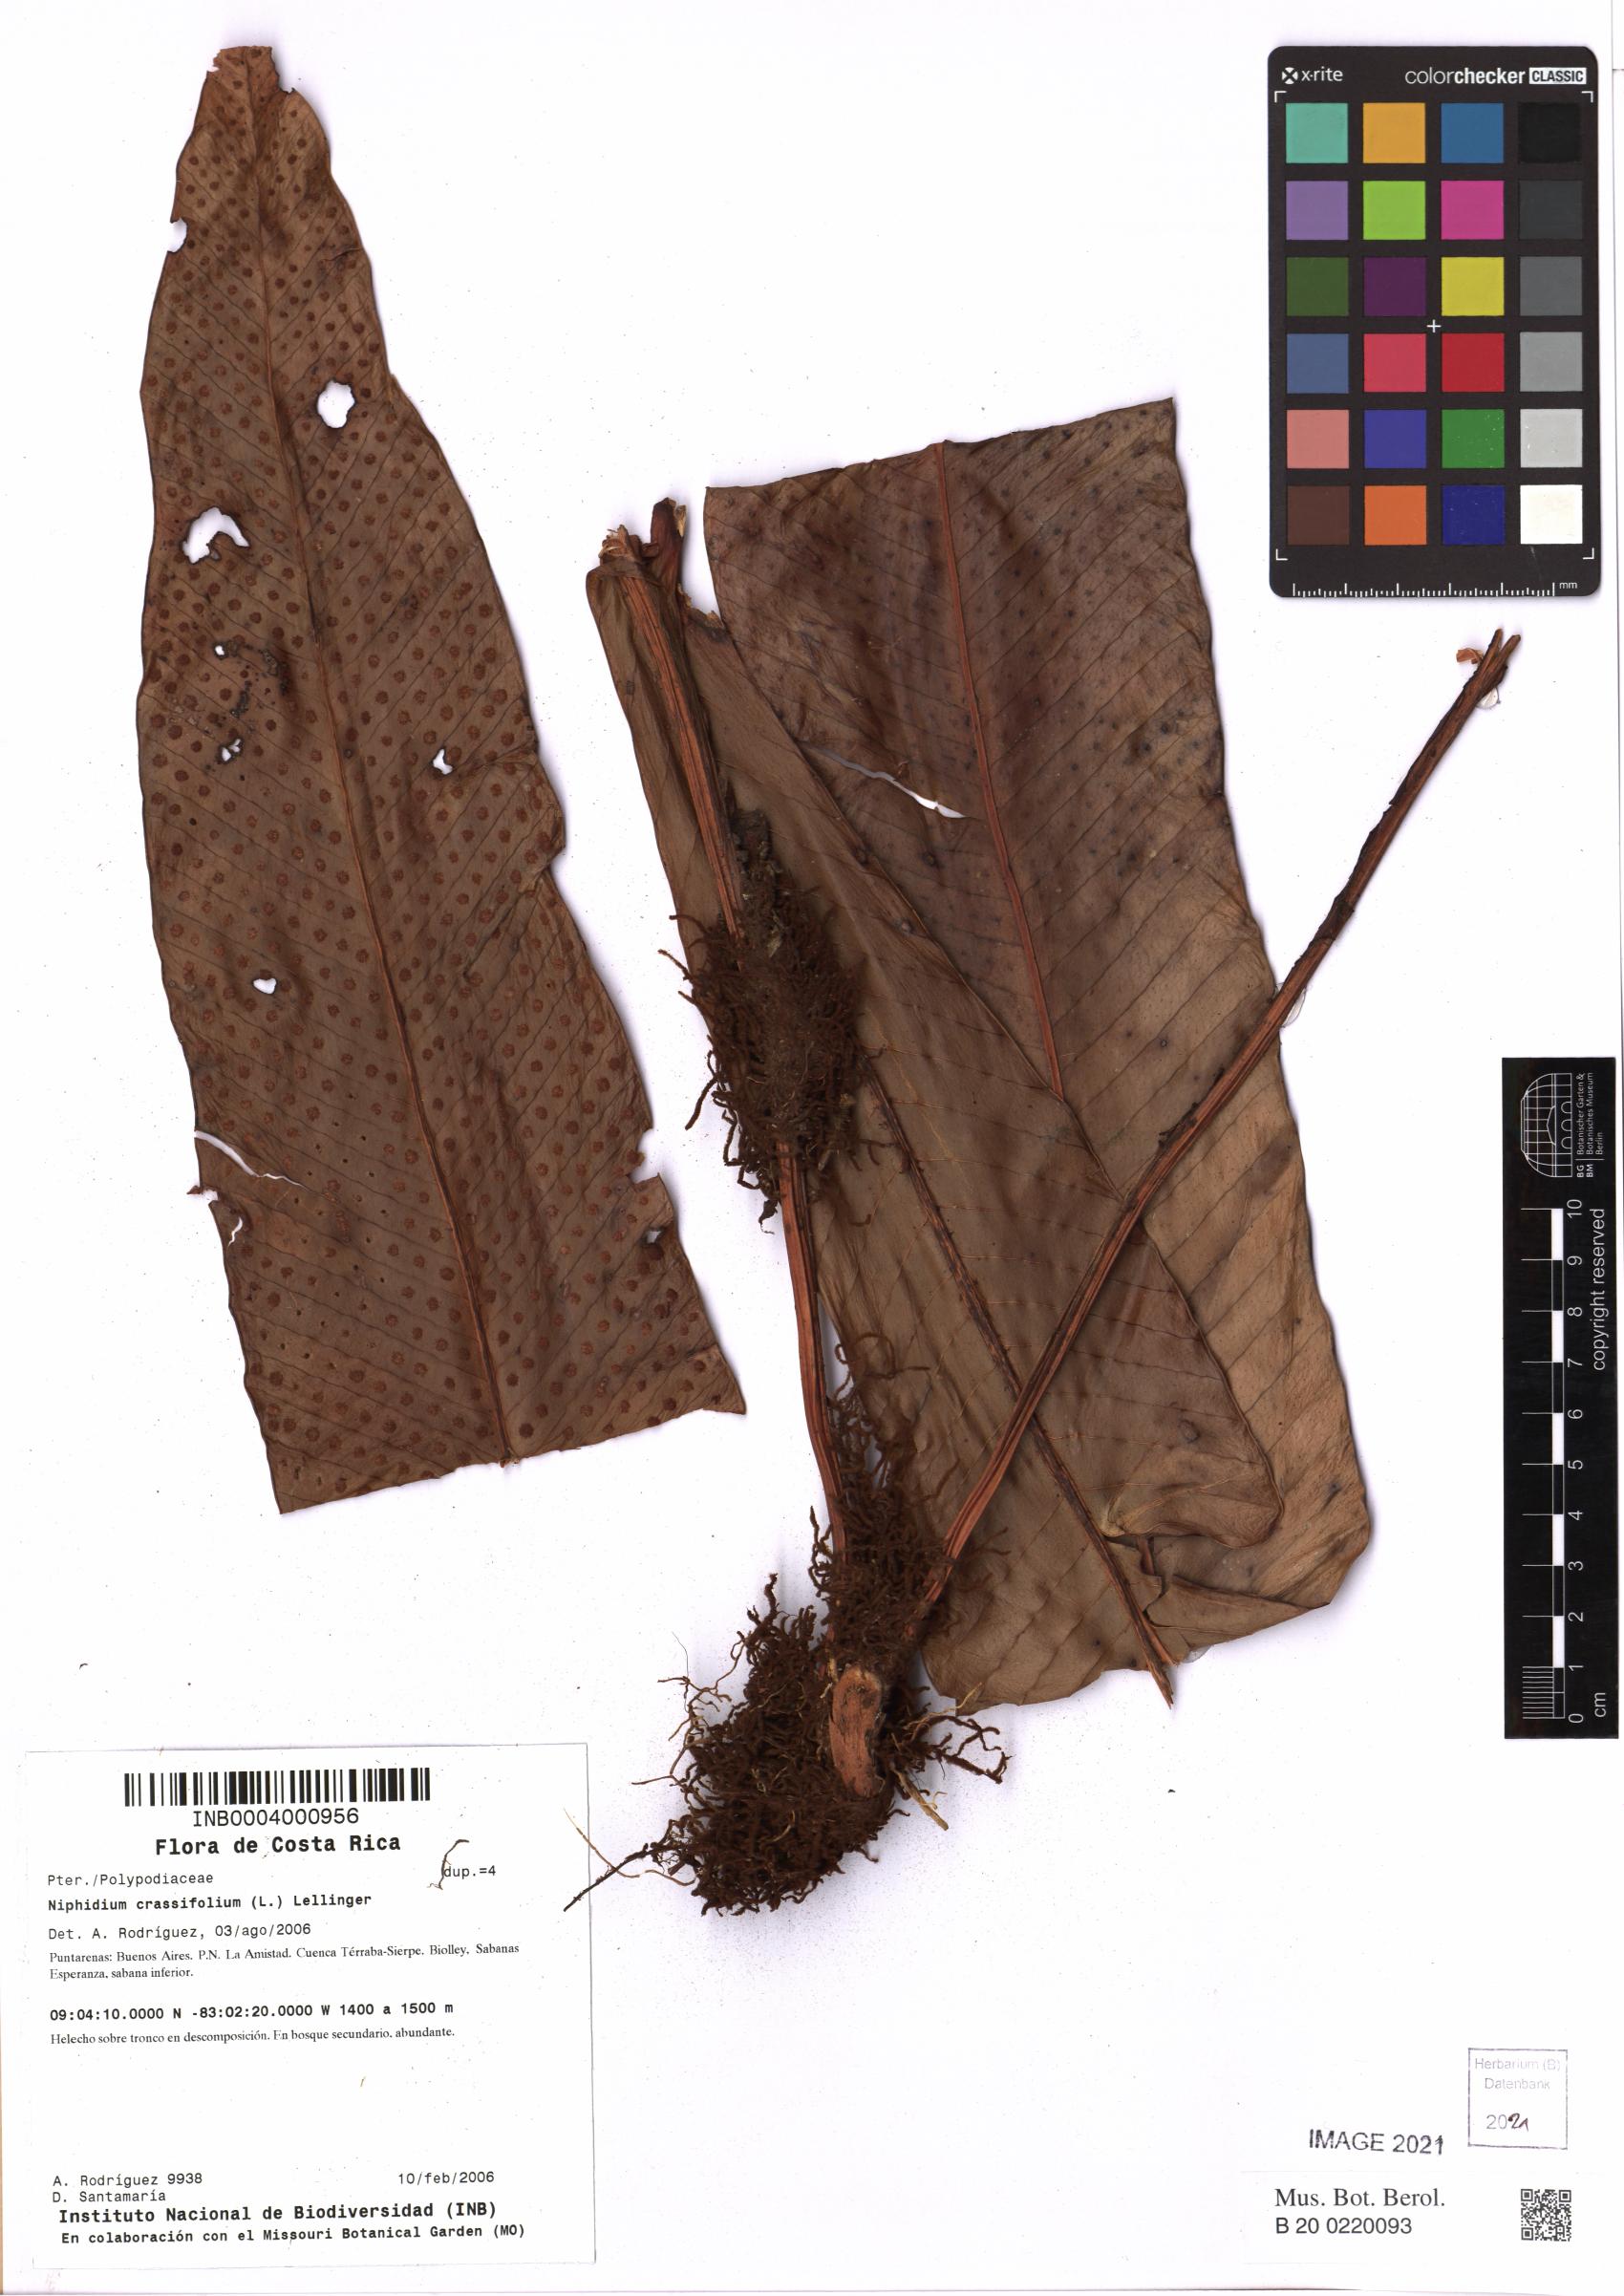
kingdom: Plantae
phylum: Tracheophyta
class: Polypodiopsida
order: Polypodiales
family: Polypodiaceae
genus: Niphidium
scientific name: Niphidium crassifolium
